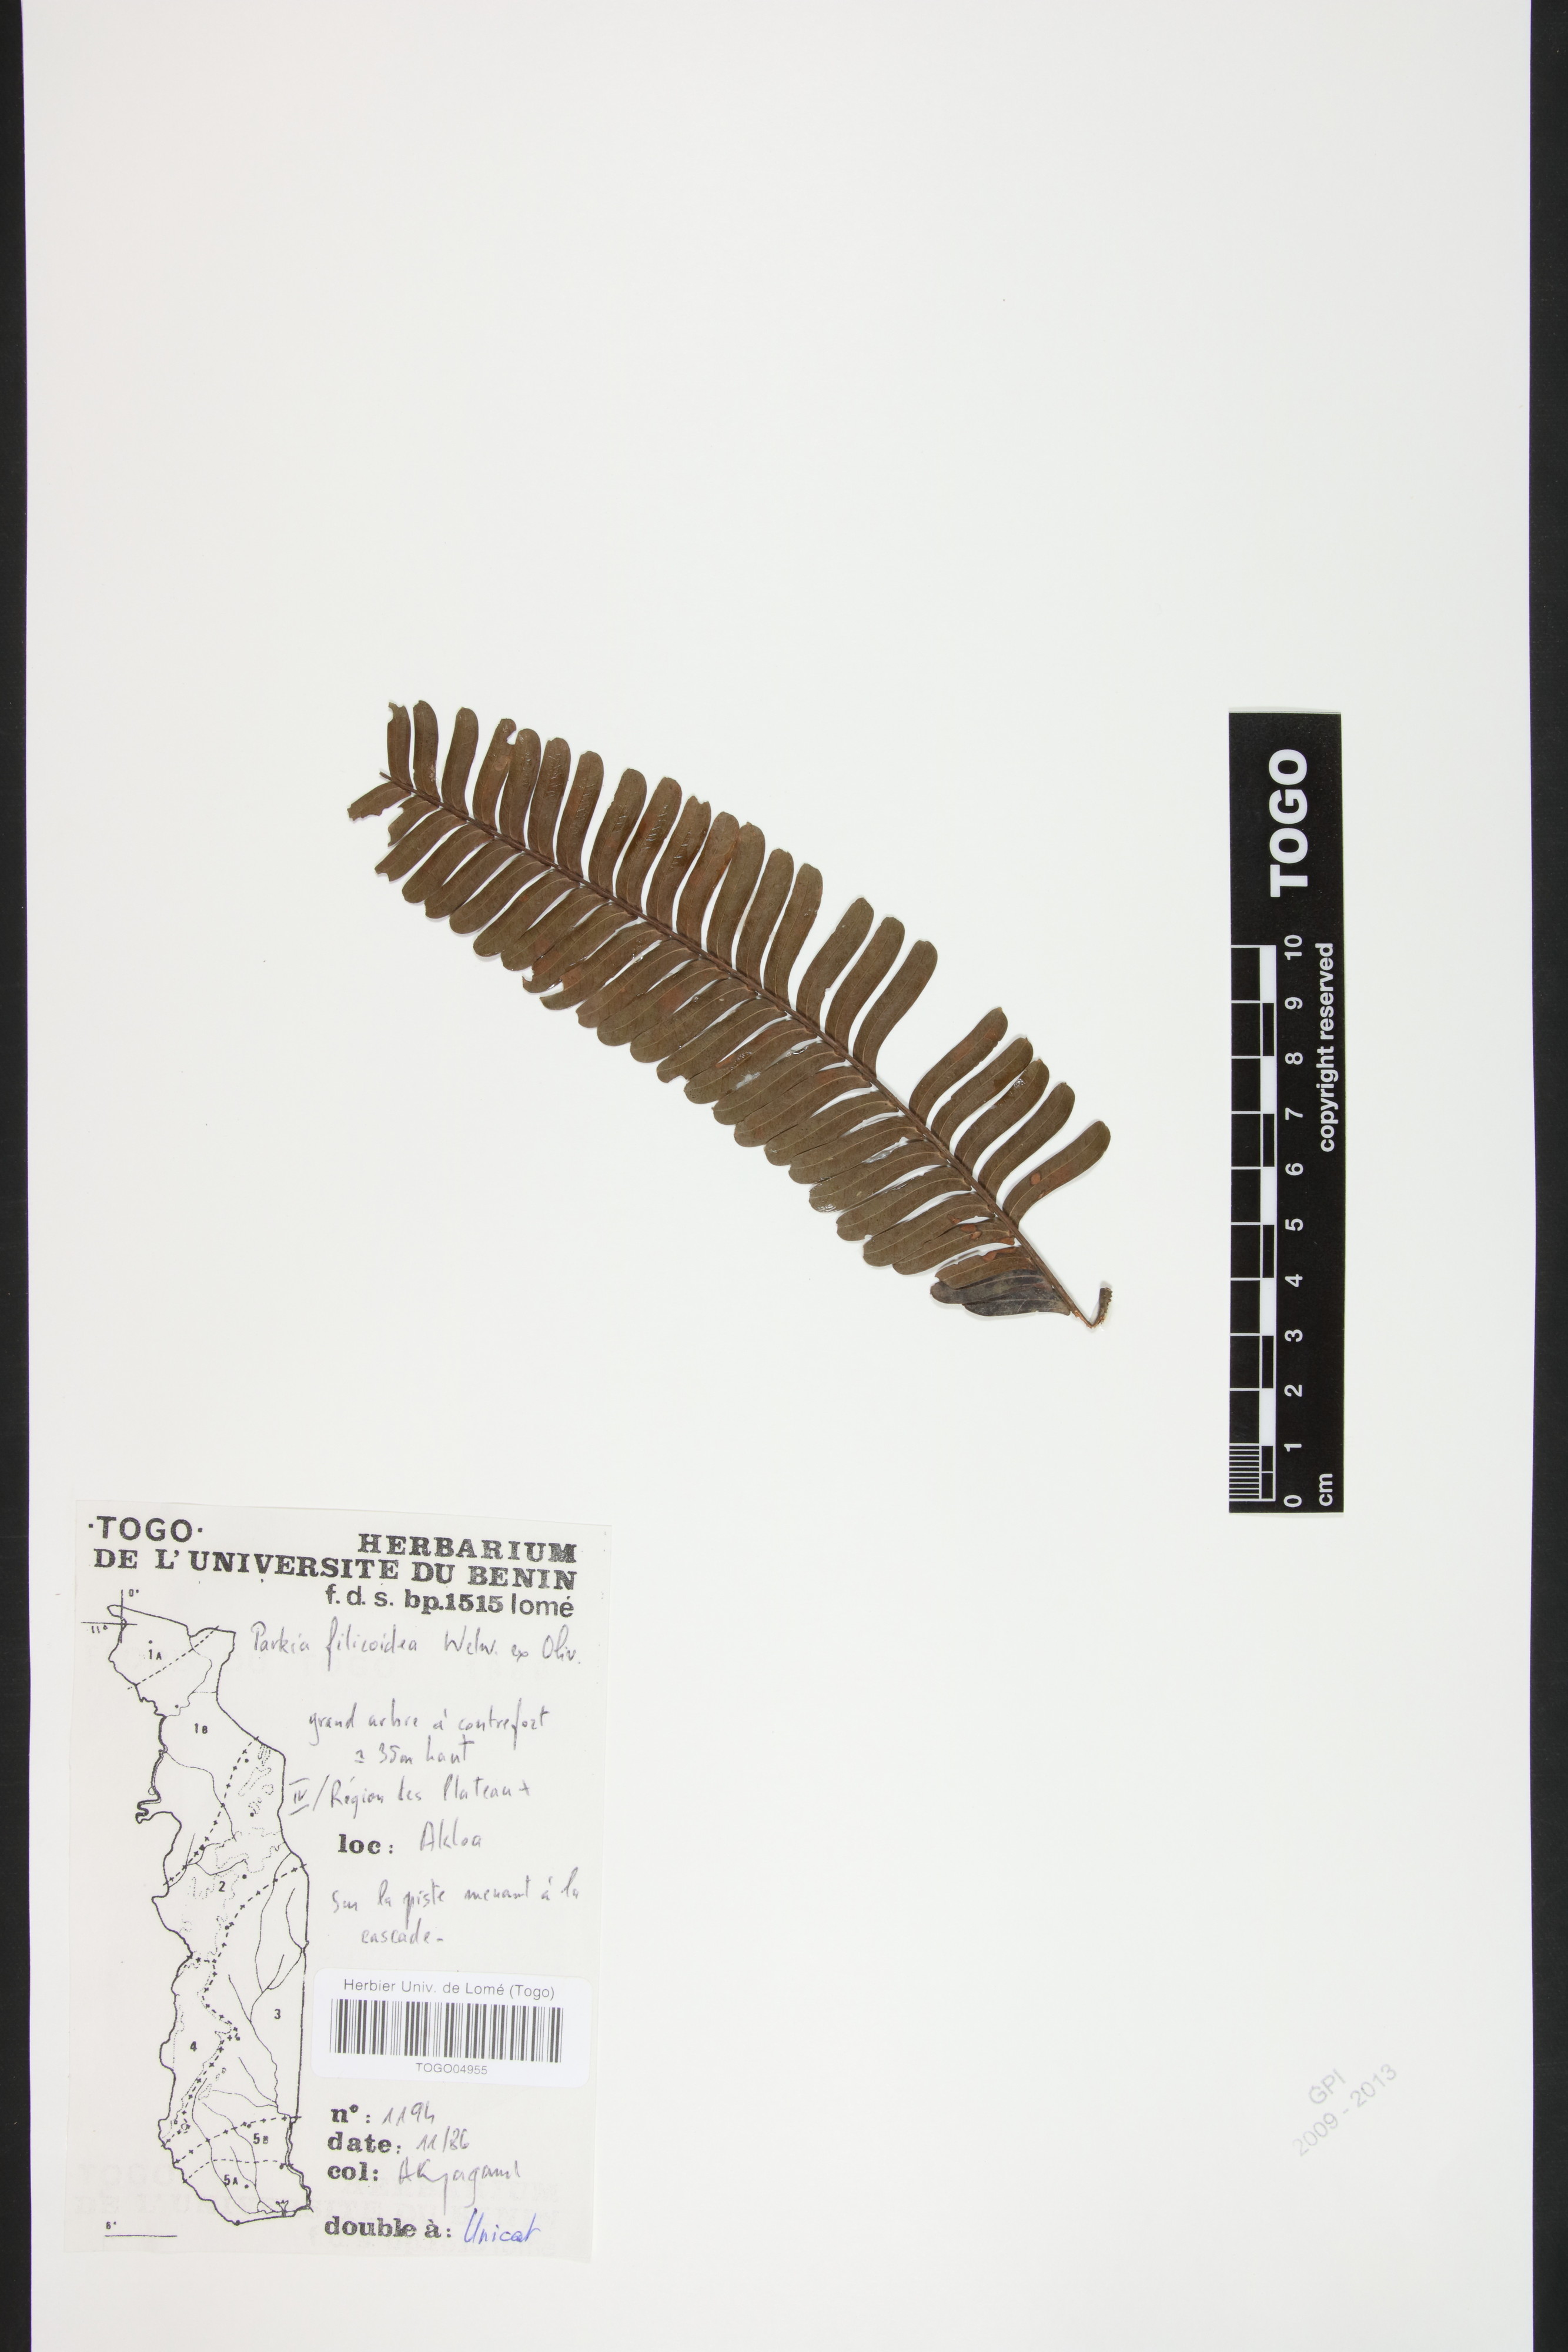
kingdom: Plantae
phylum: Tracheophyta
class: Magnoliopsida
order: Fabales
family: Fabaceae
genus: Parkia
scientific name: Parkia filicoidea
